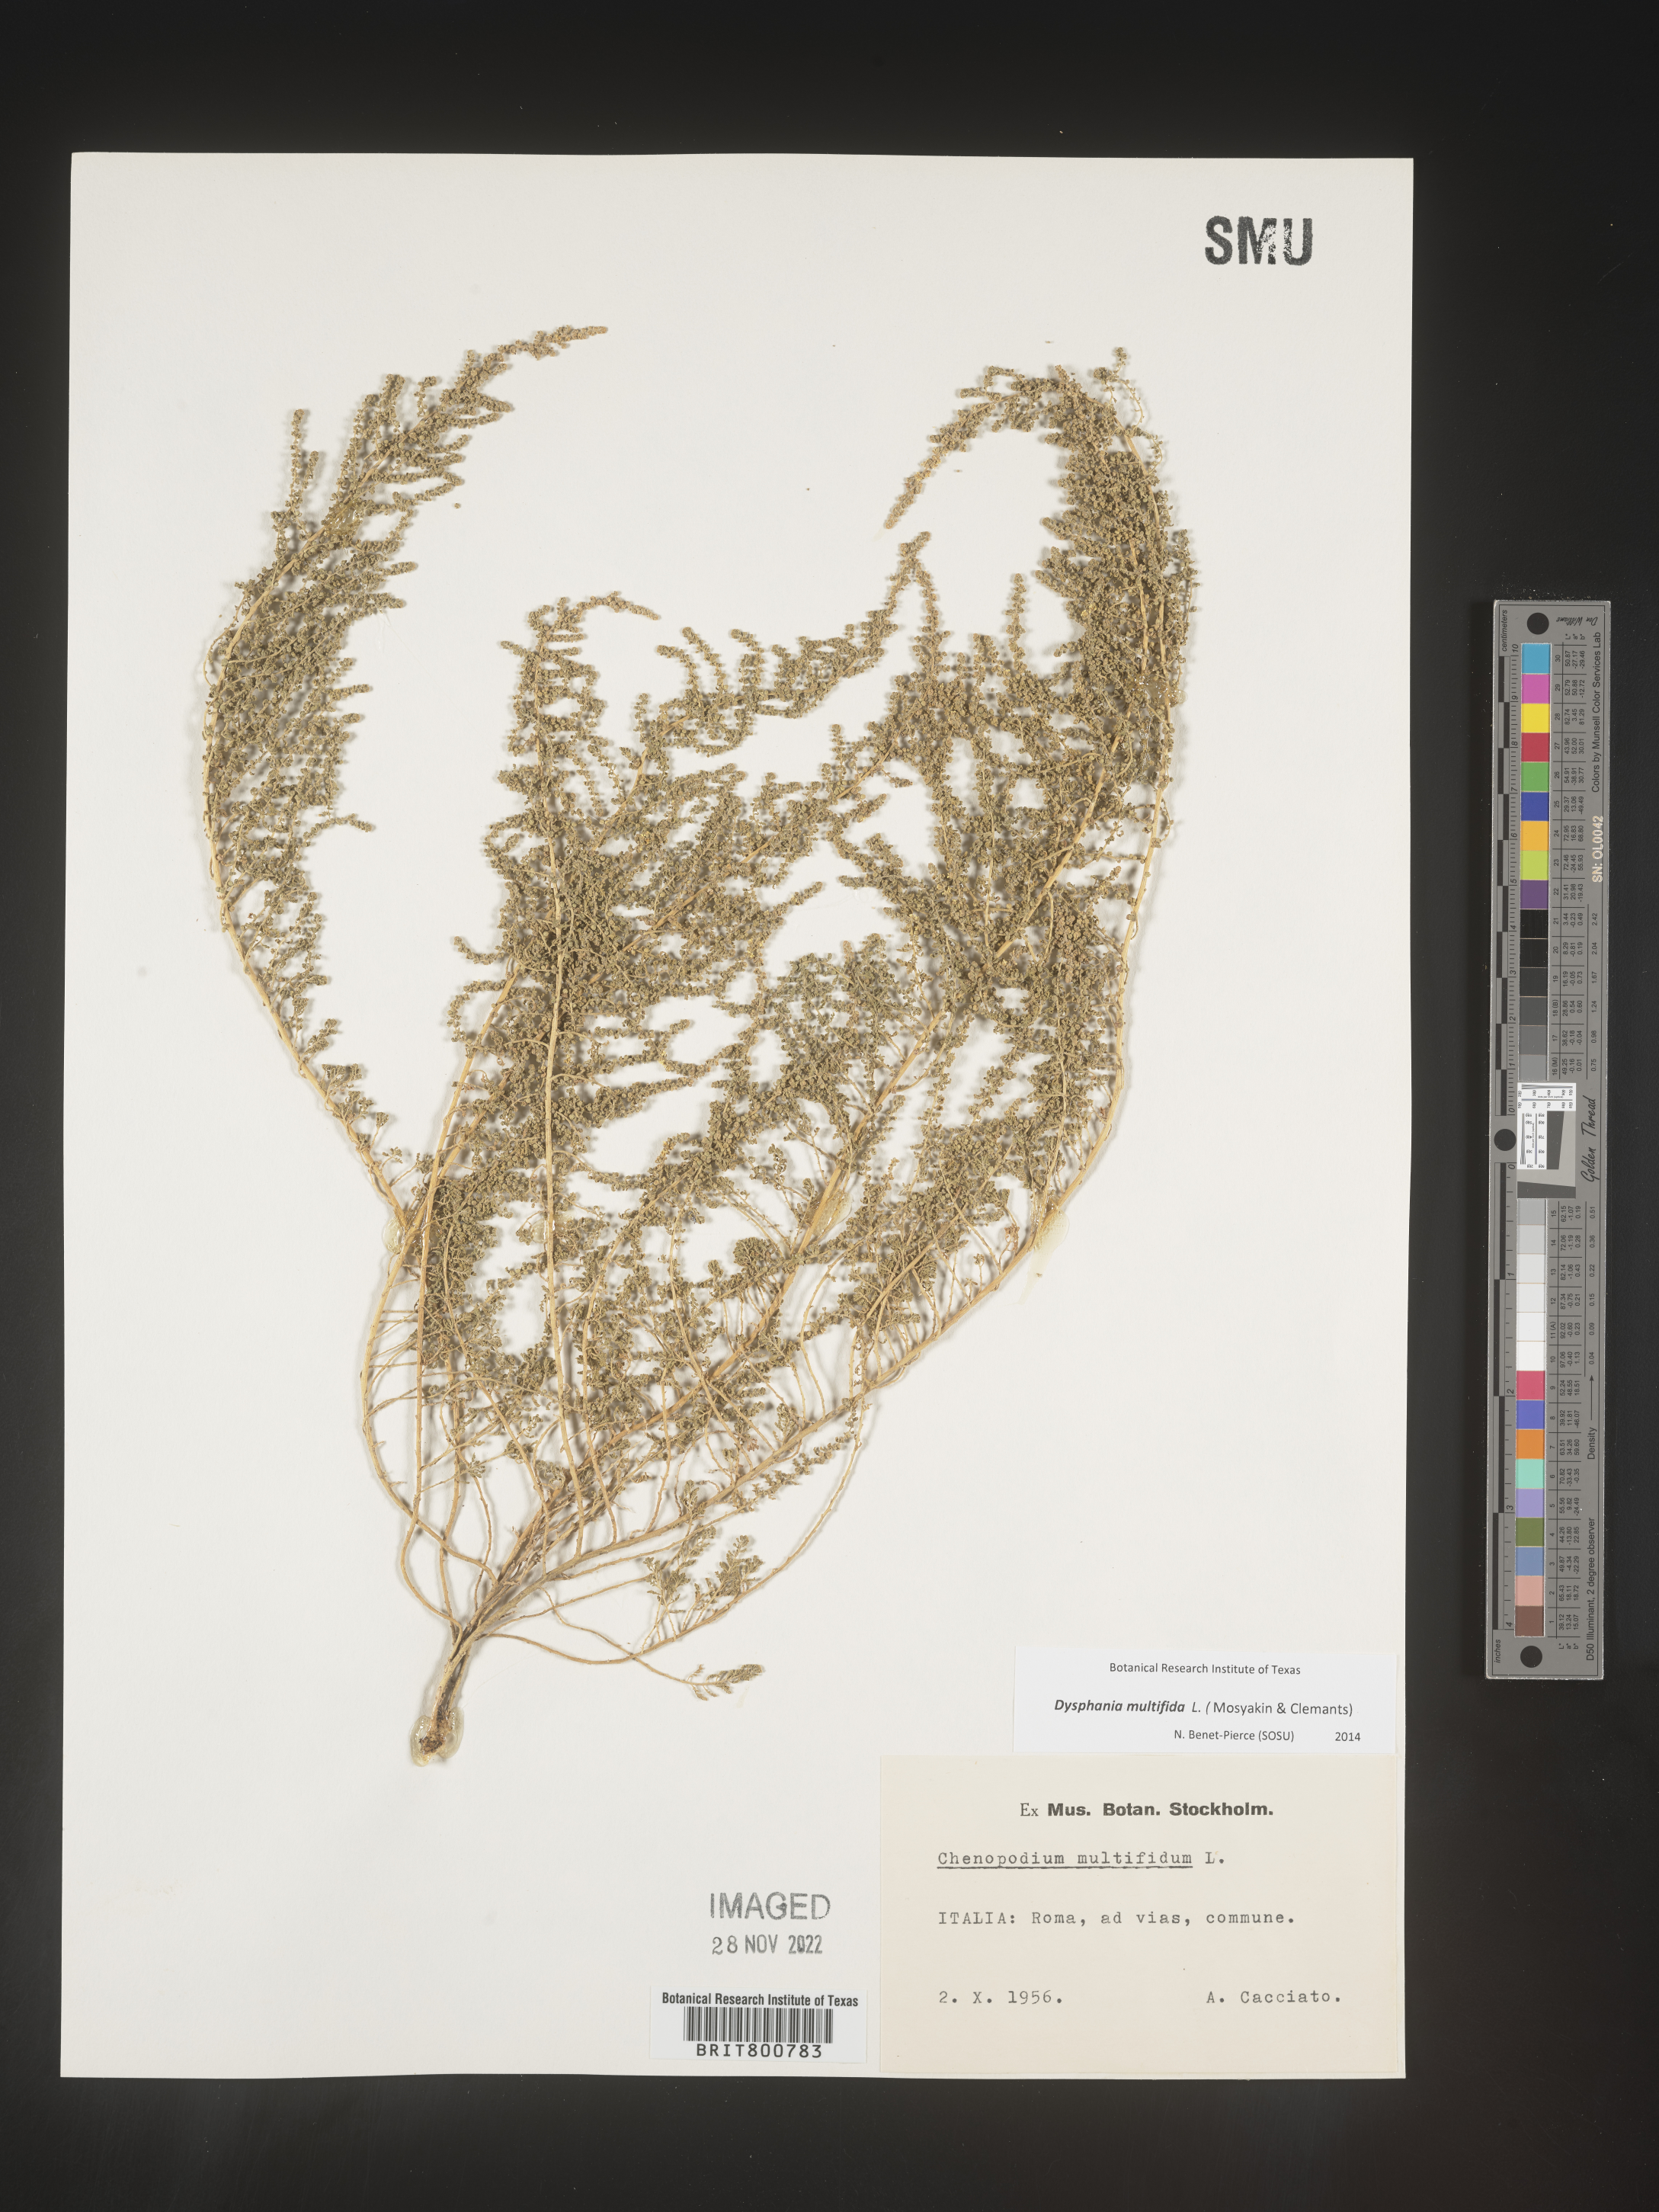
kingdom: Plantae
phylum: Tracheophyta
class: Magnoliopsida
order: Caryophyllales
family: Amaranthaceae
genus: Chenopodium
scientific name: Chenopodium
